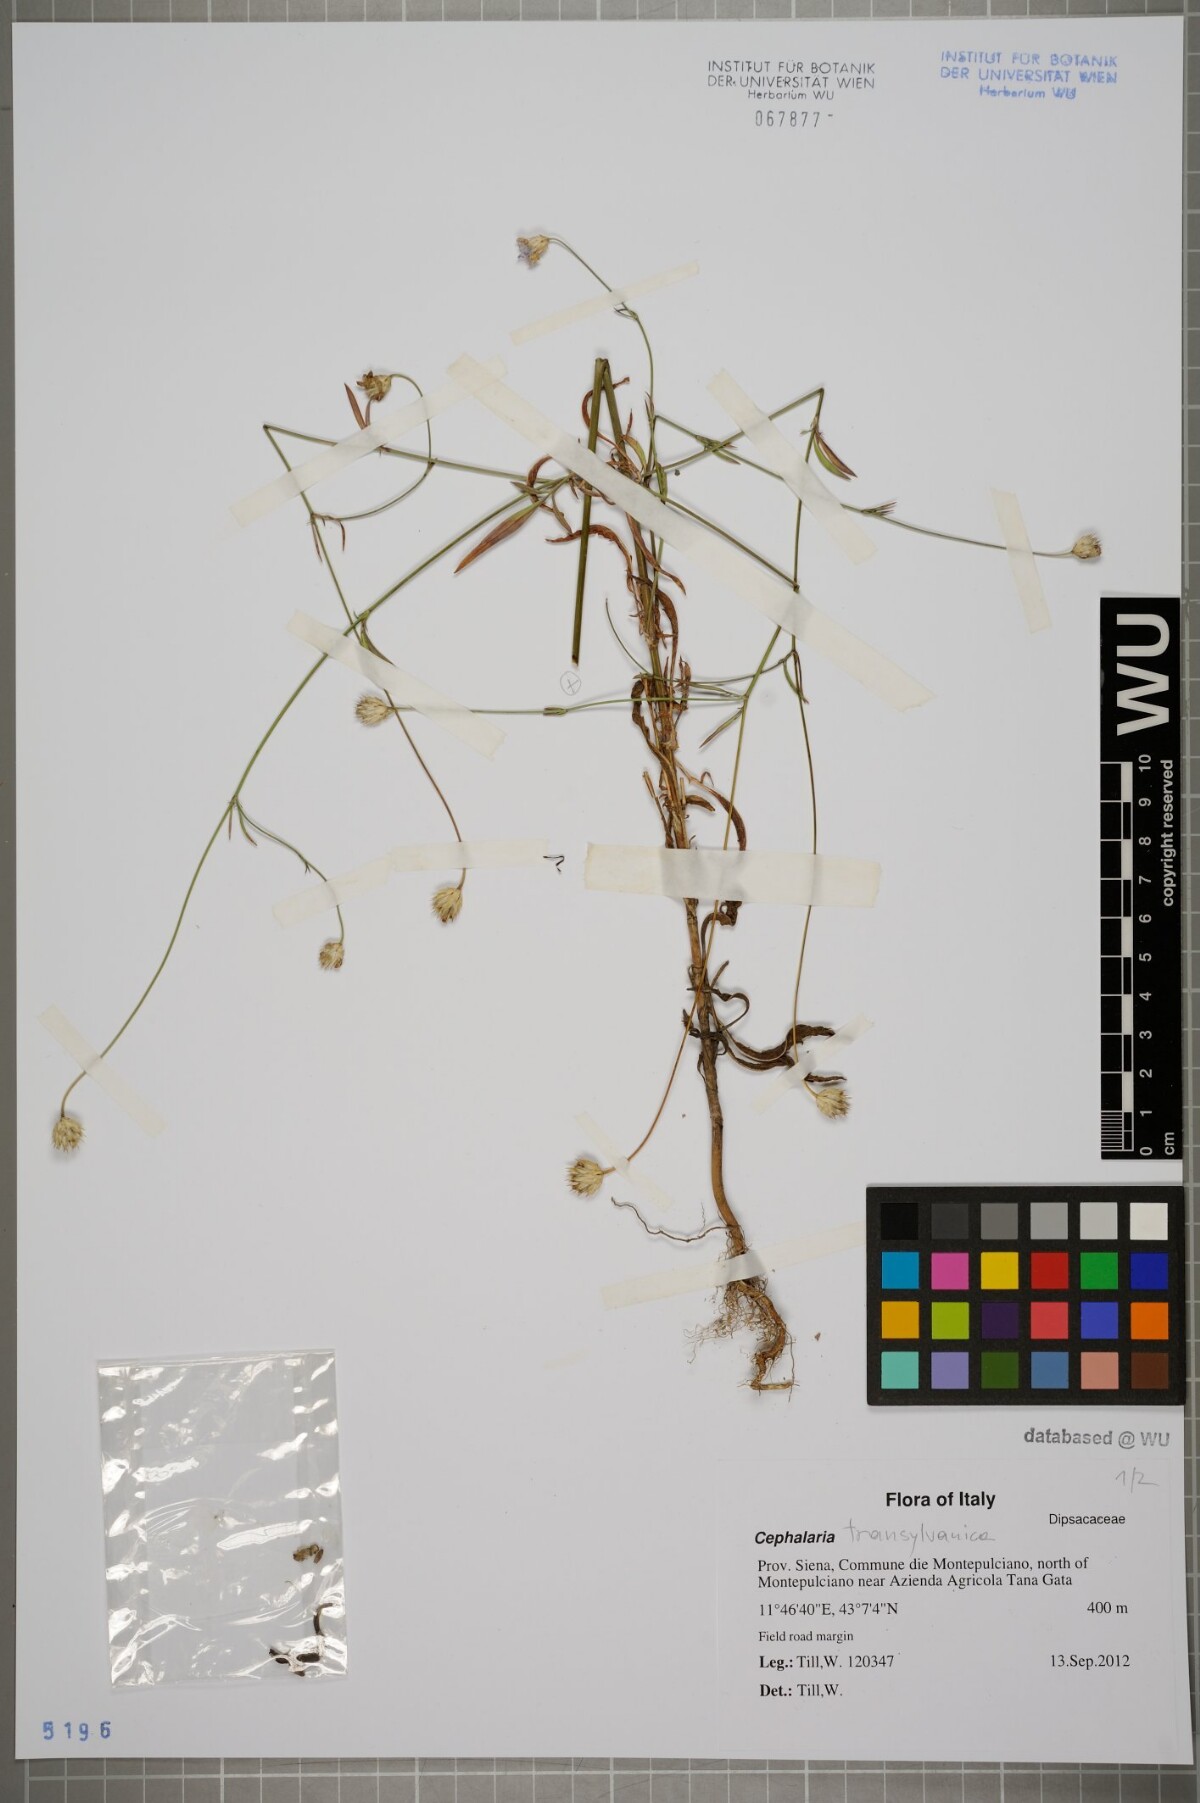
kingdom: Plantae
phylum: Tracheophyta
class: Magnoliopsida
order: Dipsacales
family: Caprifoliaceae
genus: Cephalaria
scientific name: Cephalaria transsylvanica
